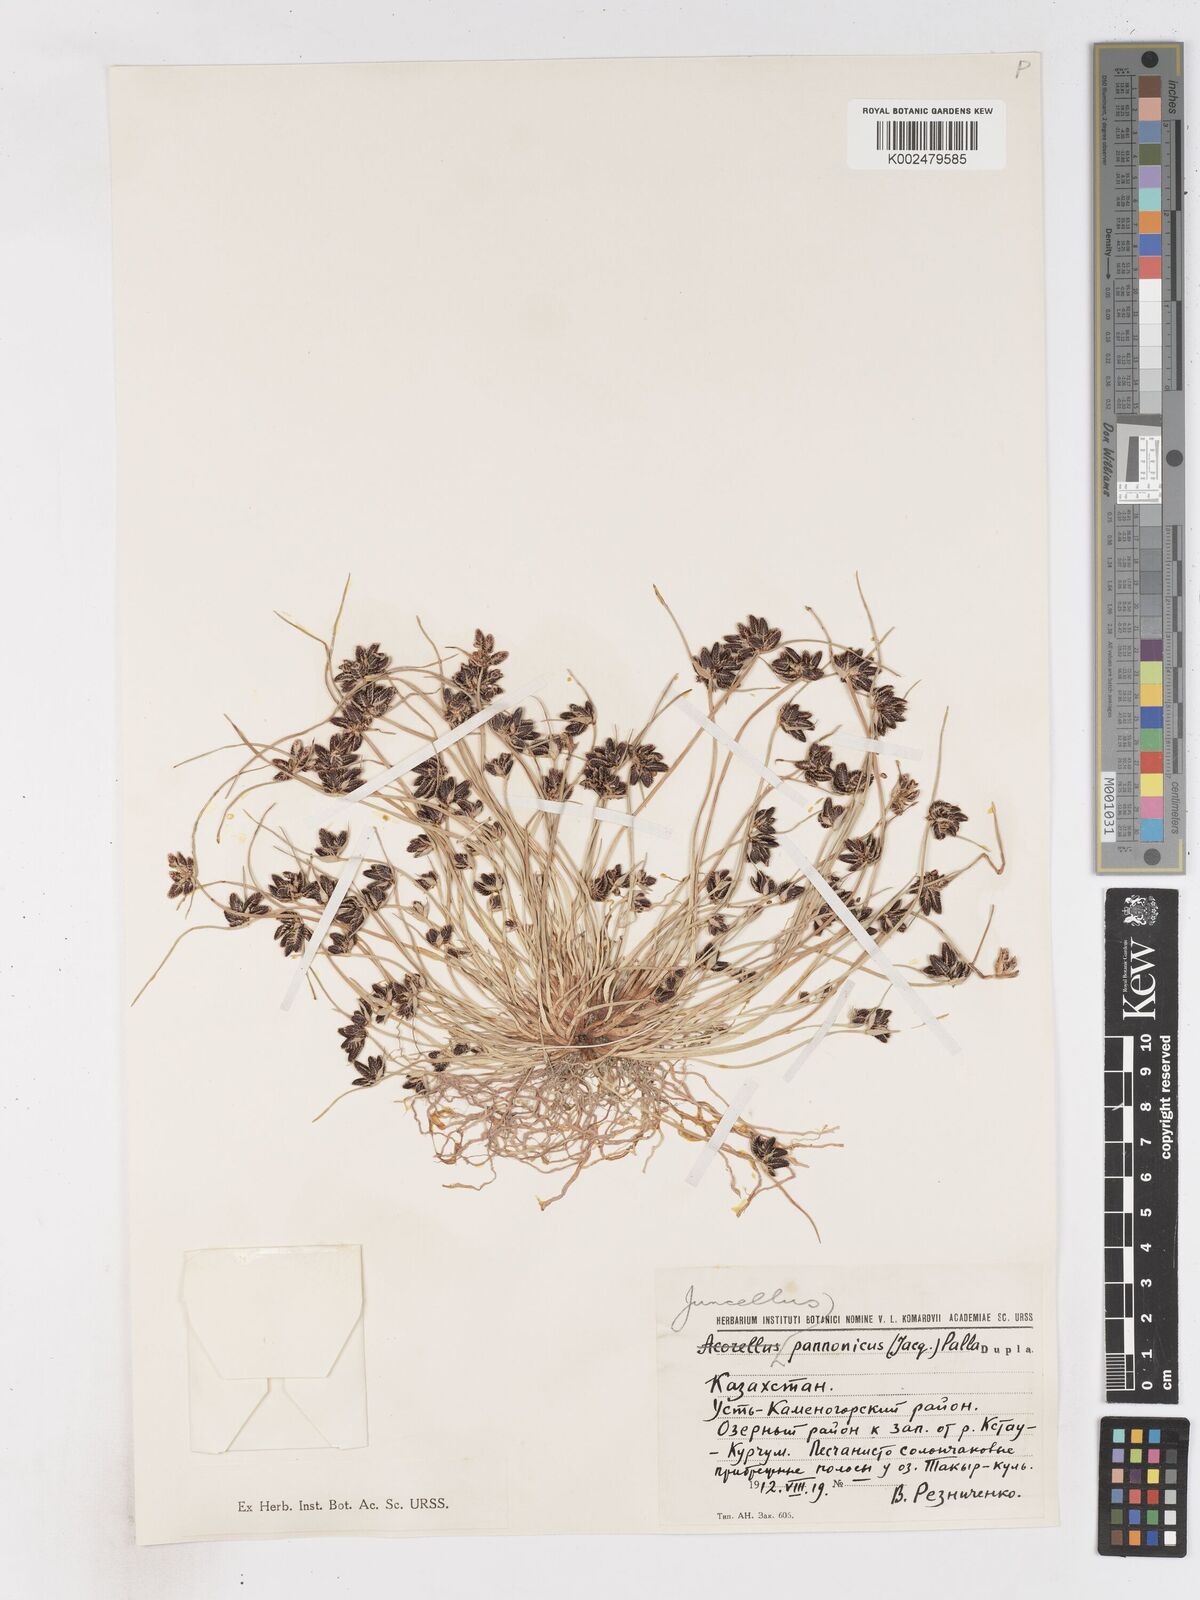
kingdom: Plantae
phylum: Tracheophyta
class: Liliopsida
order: Poales
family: Cyperaceae
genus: Cyperus
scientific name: Cyperus pannonicus
